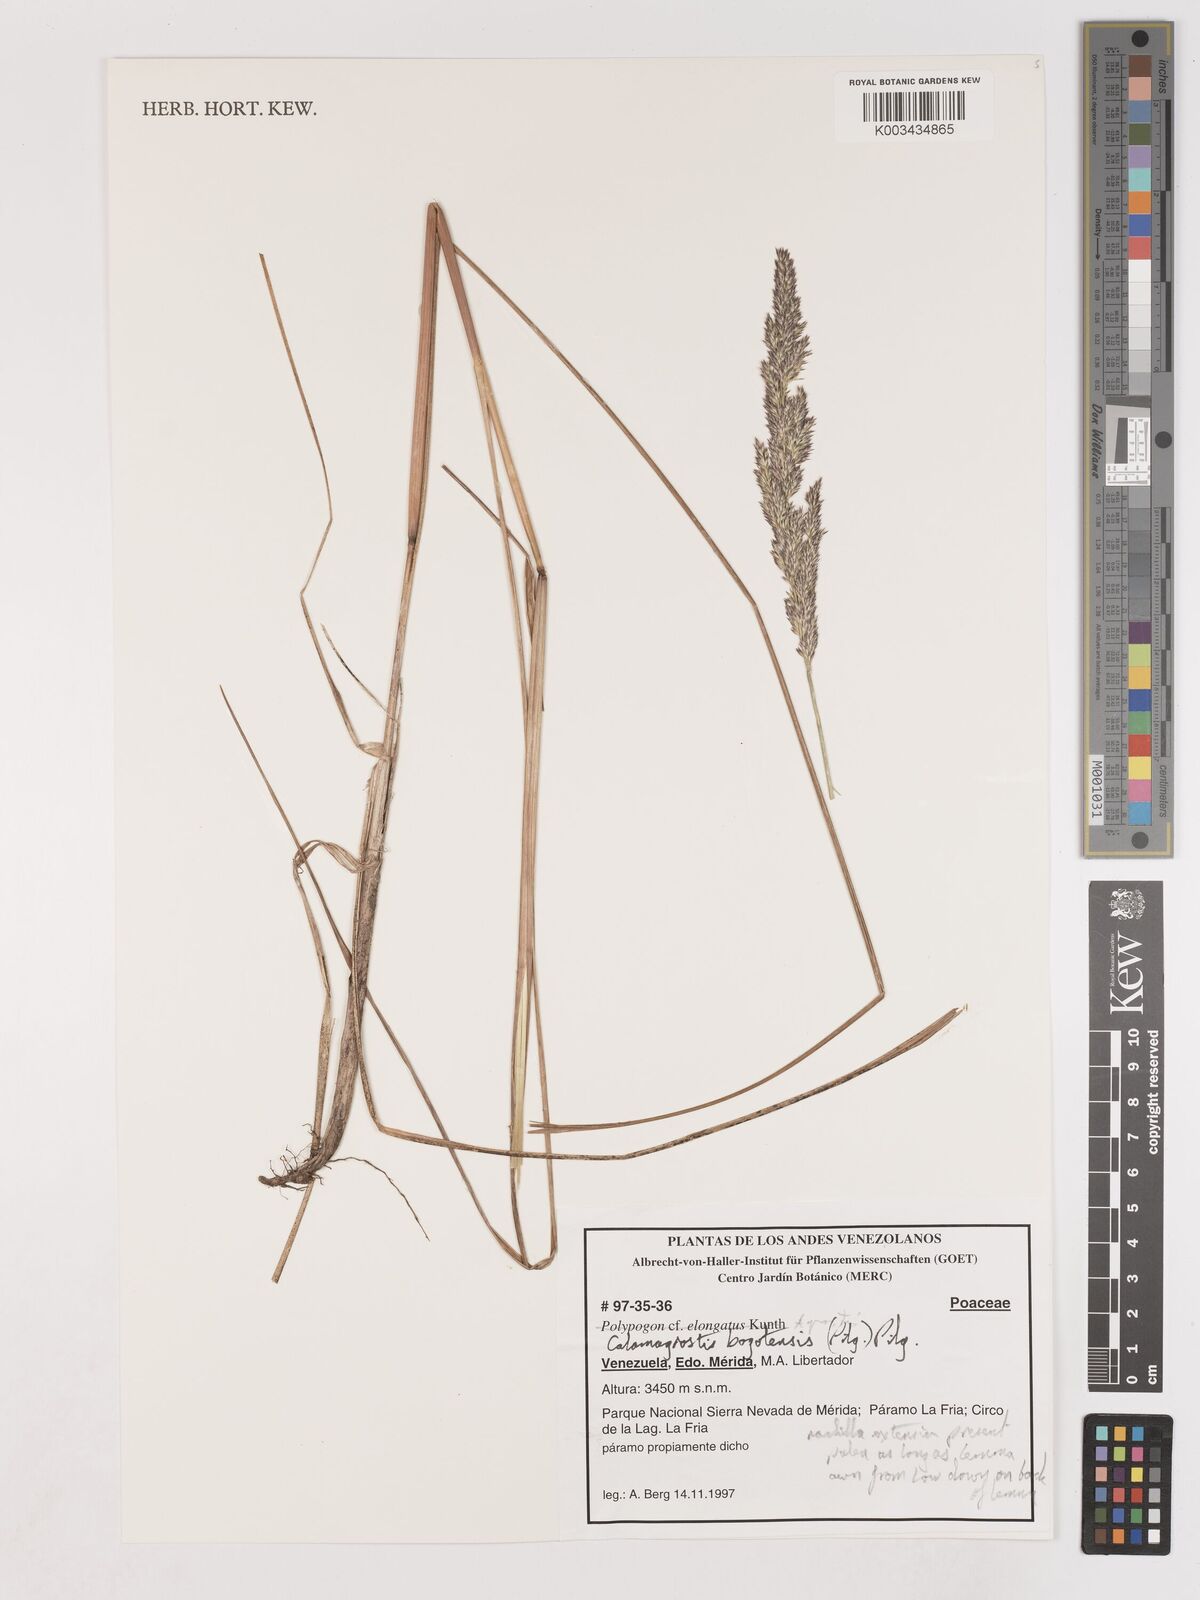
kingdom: Plantae
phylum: Tracheophyta
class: Liliopsida
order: Poales
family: Poaceae
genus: Calamagrostis
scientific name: Calamagrostis bogotensis
